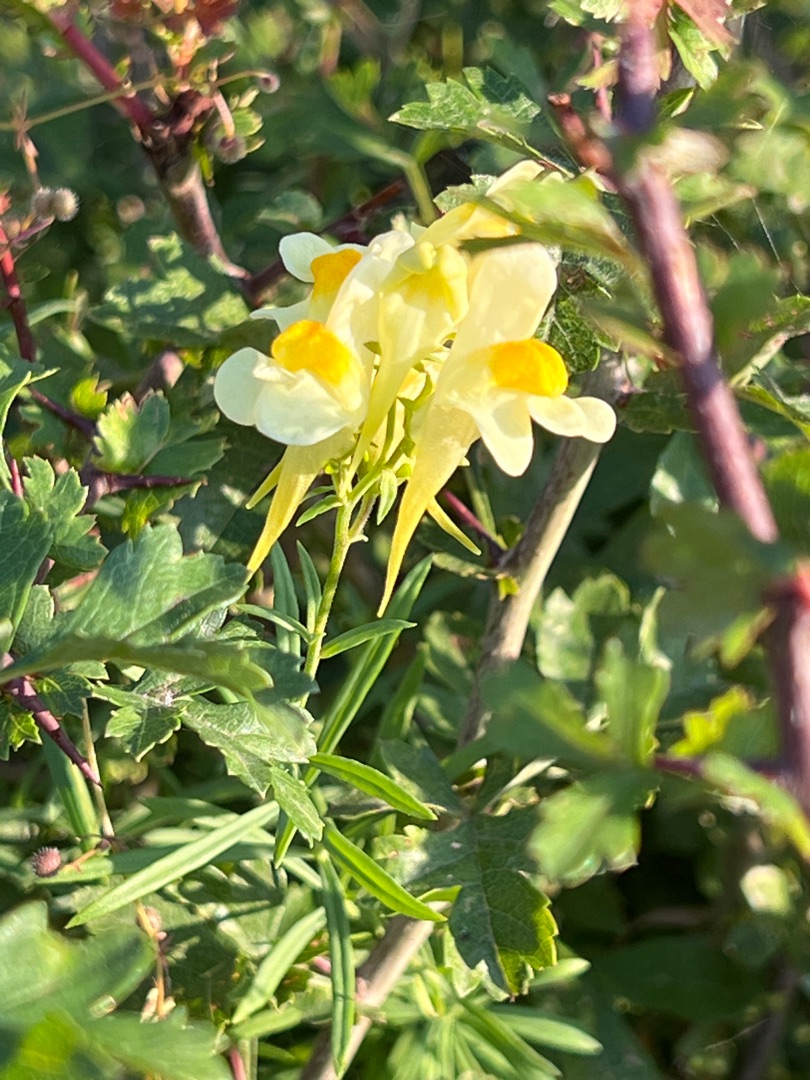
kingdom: Plantae
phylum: Tracheophyta
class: Magnoliopsida
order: Lamiales
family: Plantaginaceae
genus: Linaria
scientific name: Linaria vulgaris
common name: Almindelig torskemund
